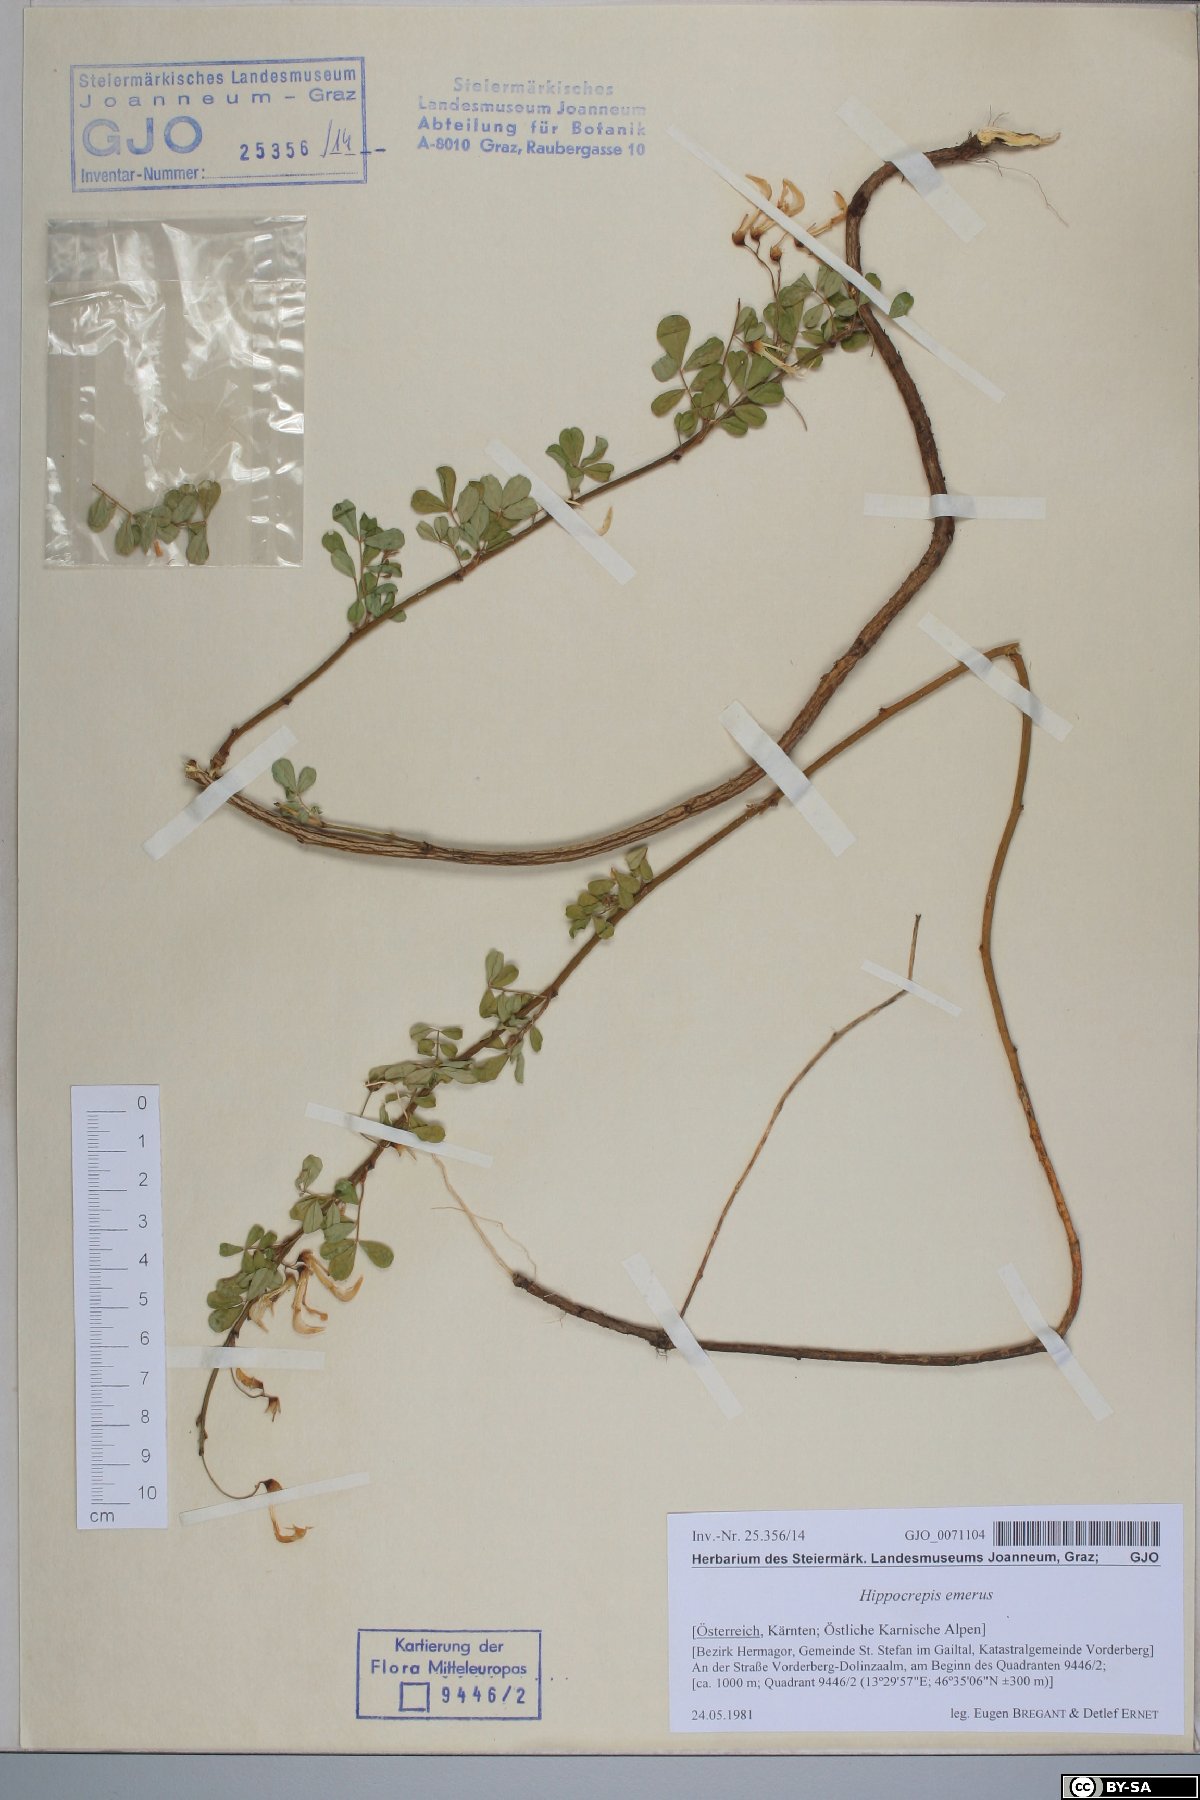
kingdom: Plantae
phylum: Tracheophyta
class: Magnoliopsida
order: Fabales
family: Fabaceae
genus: Hippocrepis
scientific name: Hippocrepis emerus
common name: Scorpion senna
